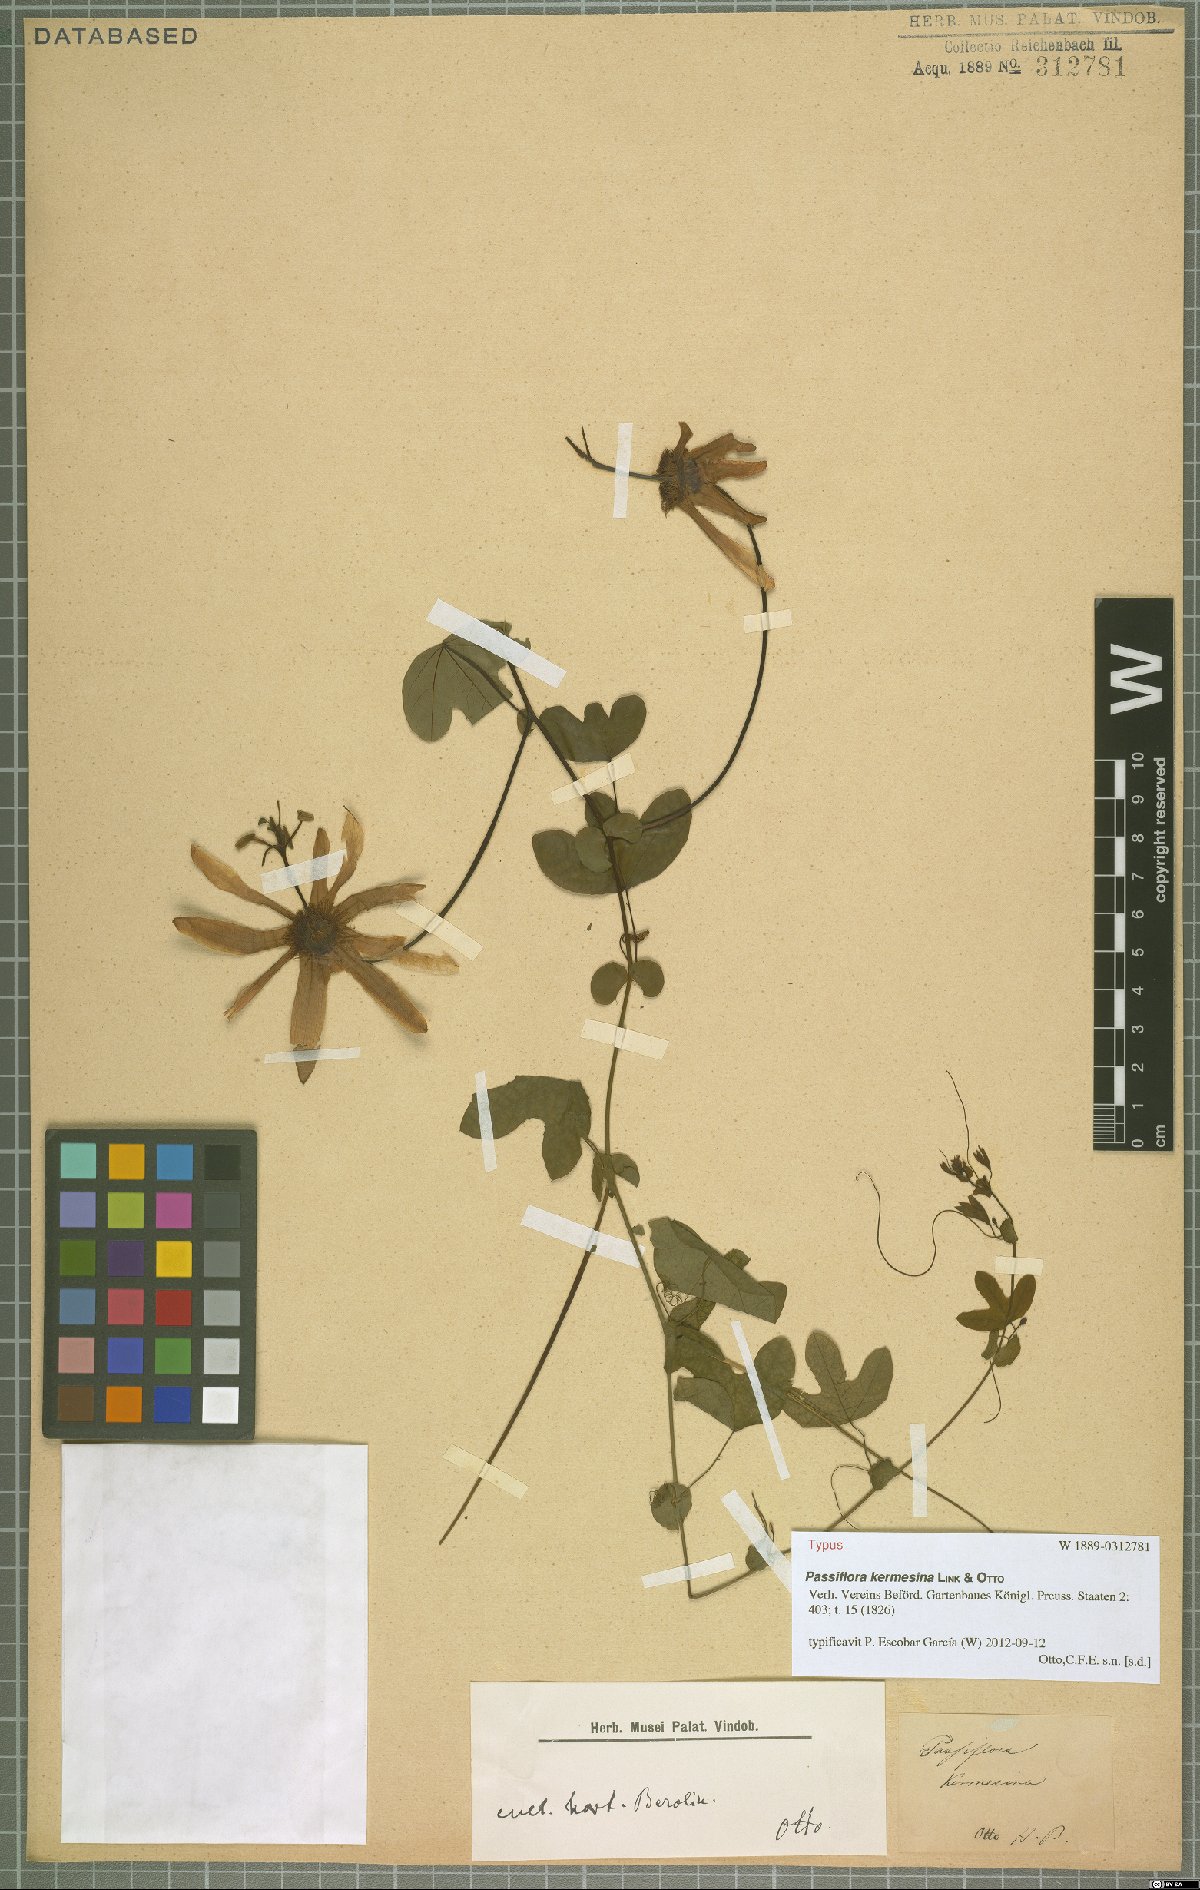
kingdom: Plantae
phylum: Tracheophyta
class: Magnoliopsida
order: Malpighiales
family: Passifloraceae
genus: Passiflora
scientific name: Passiflora kermesina
